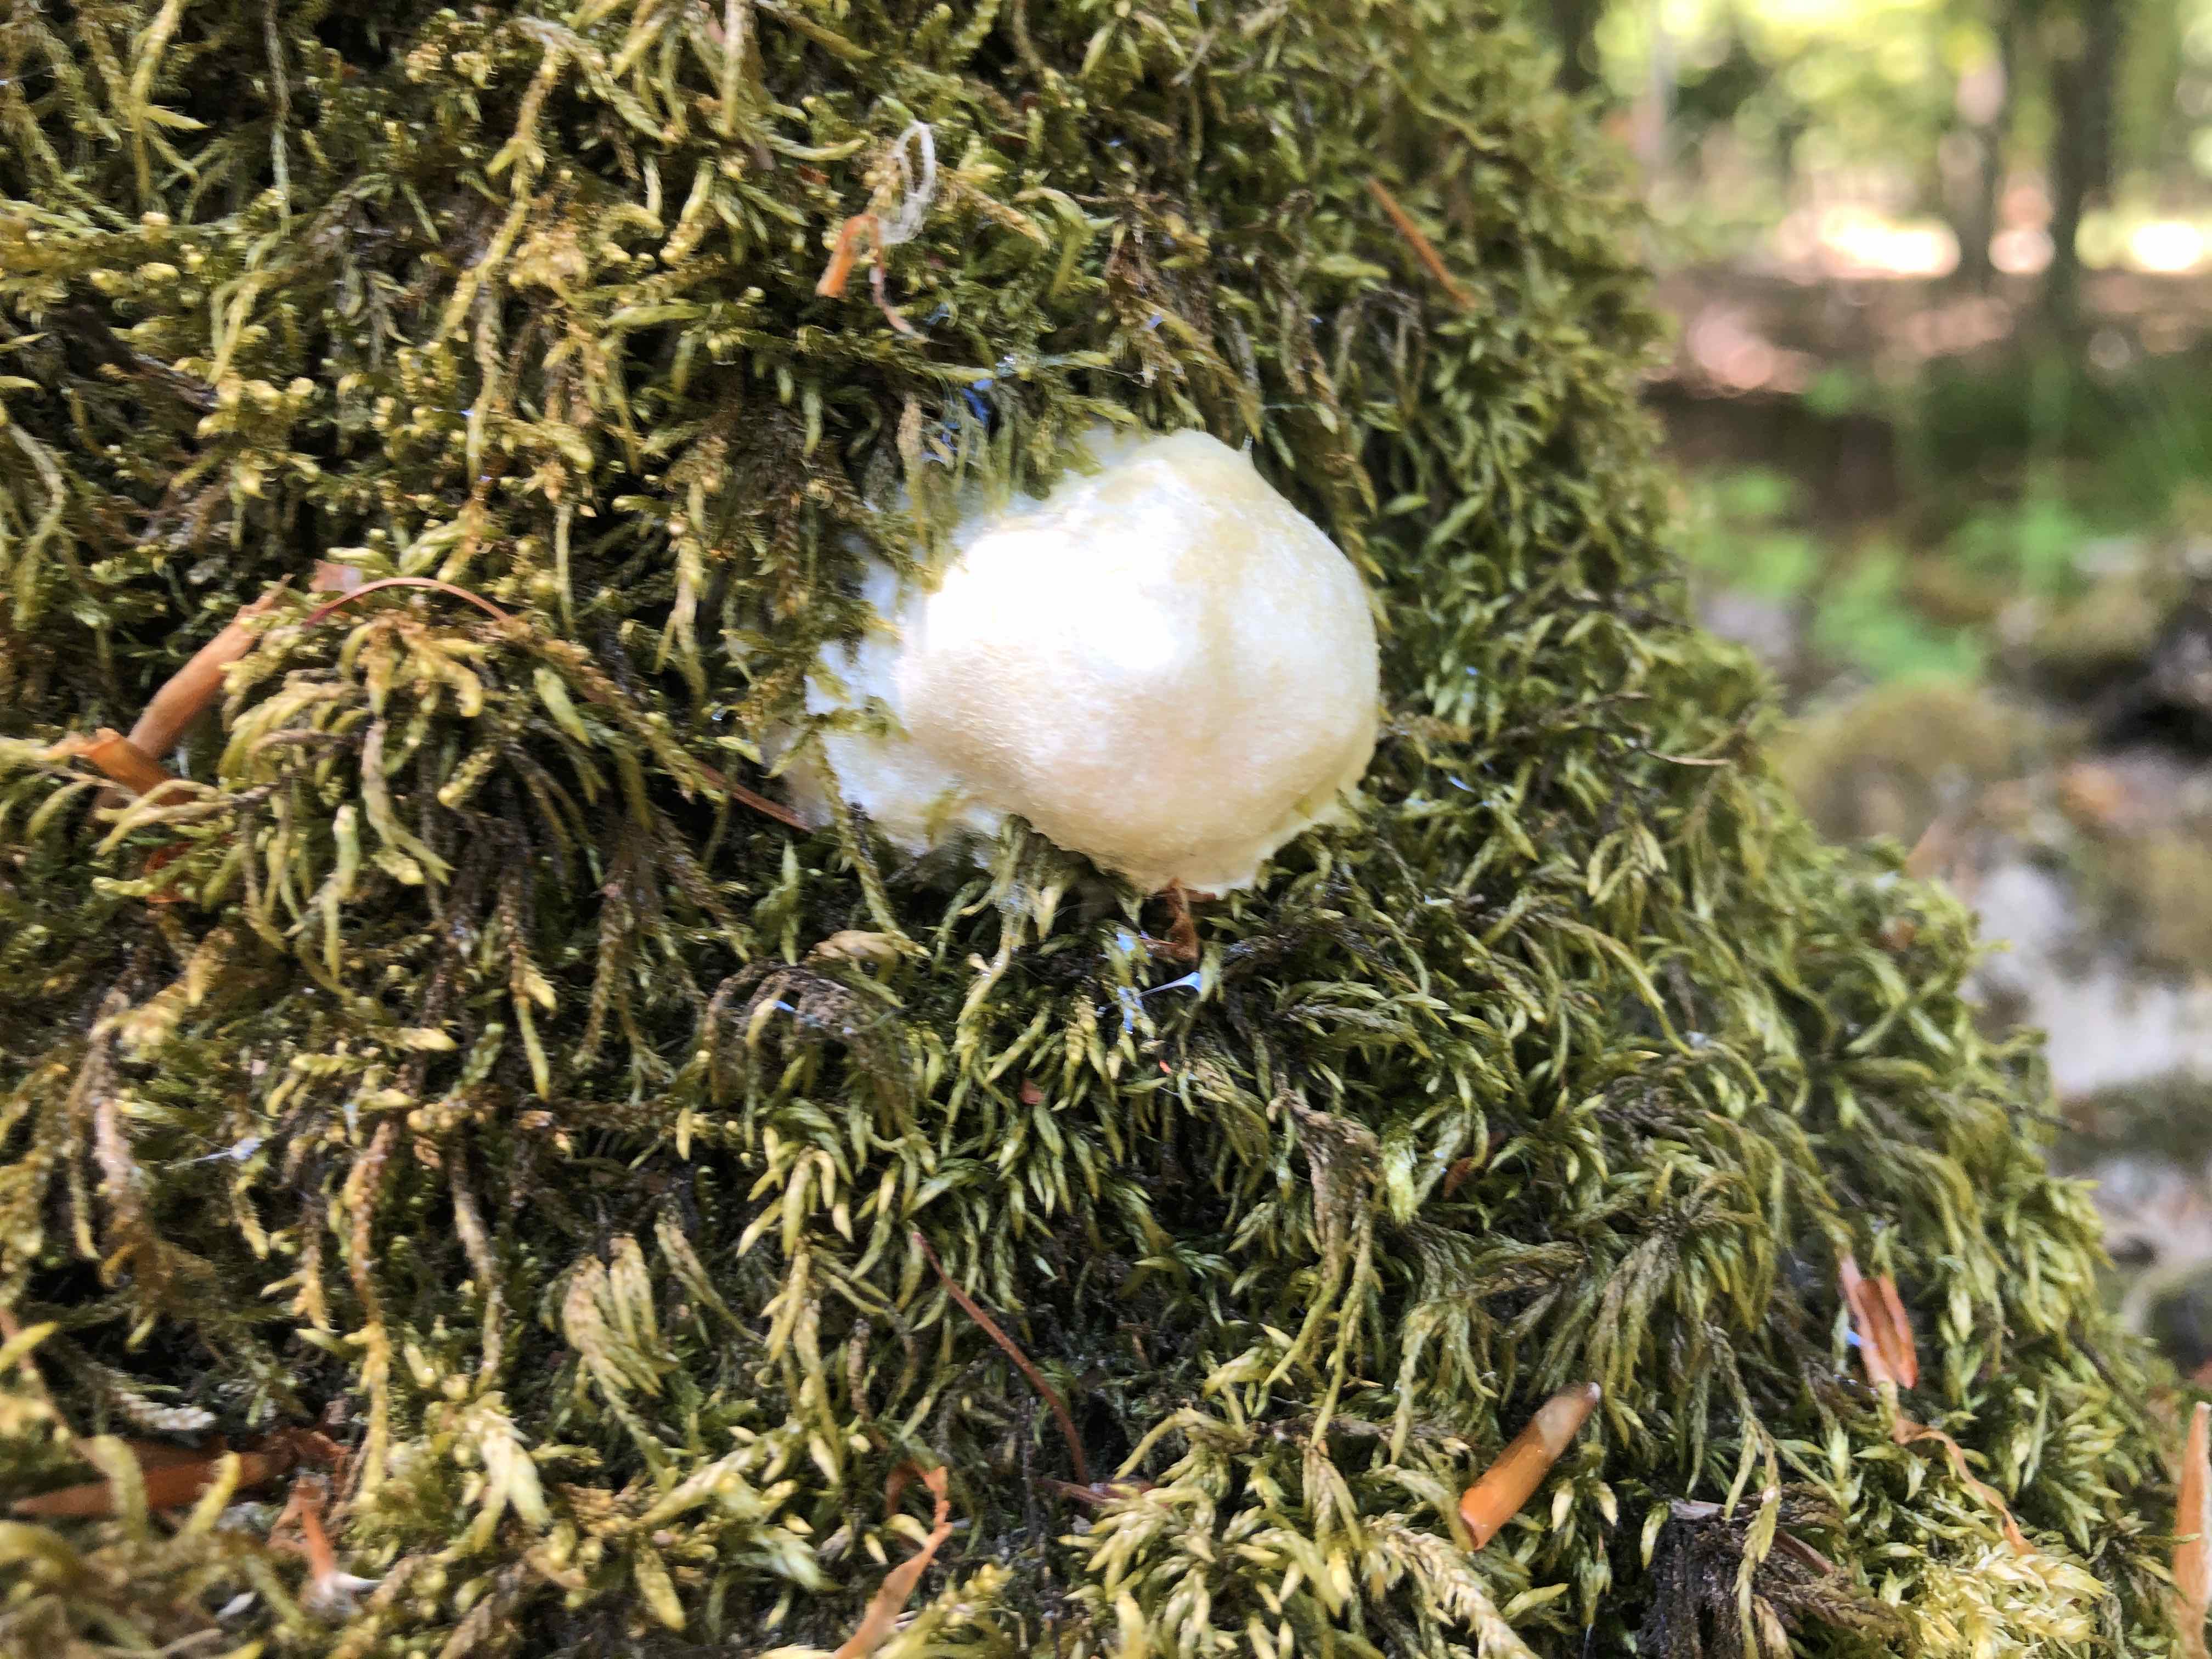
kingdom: Protozoa
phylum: Mycetozoa
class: Myxomycetes
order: Cribrariales
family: Tubiferaceae
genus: Reticularia
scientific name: Reticularia
